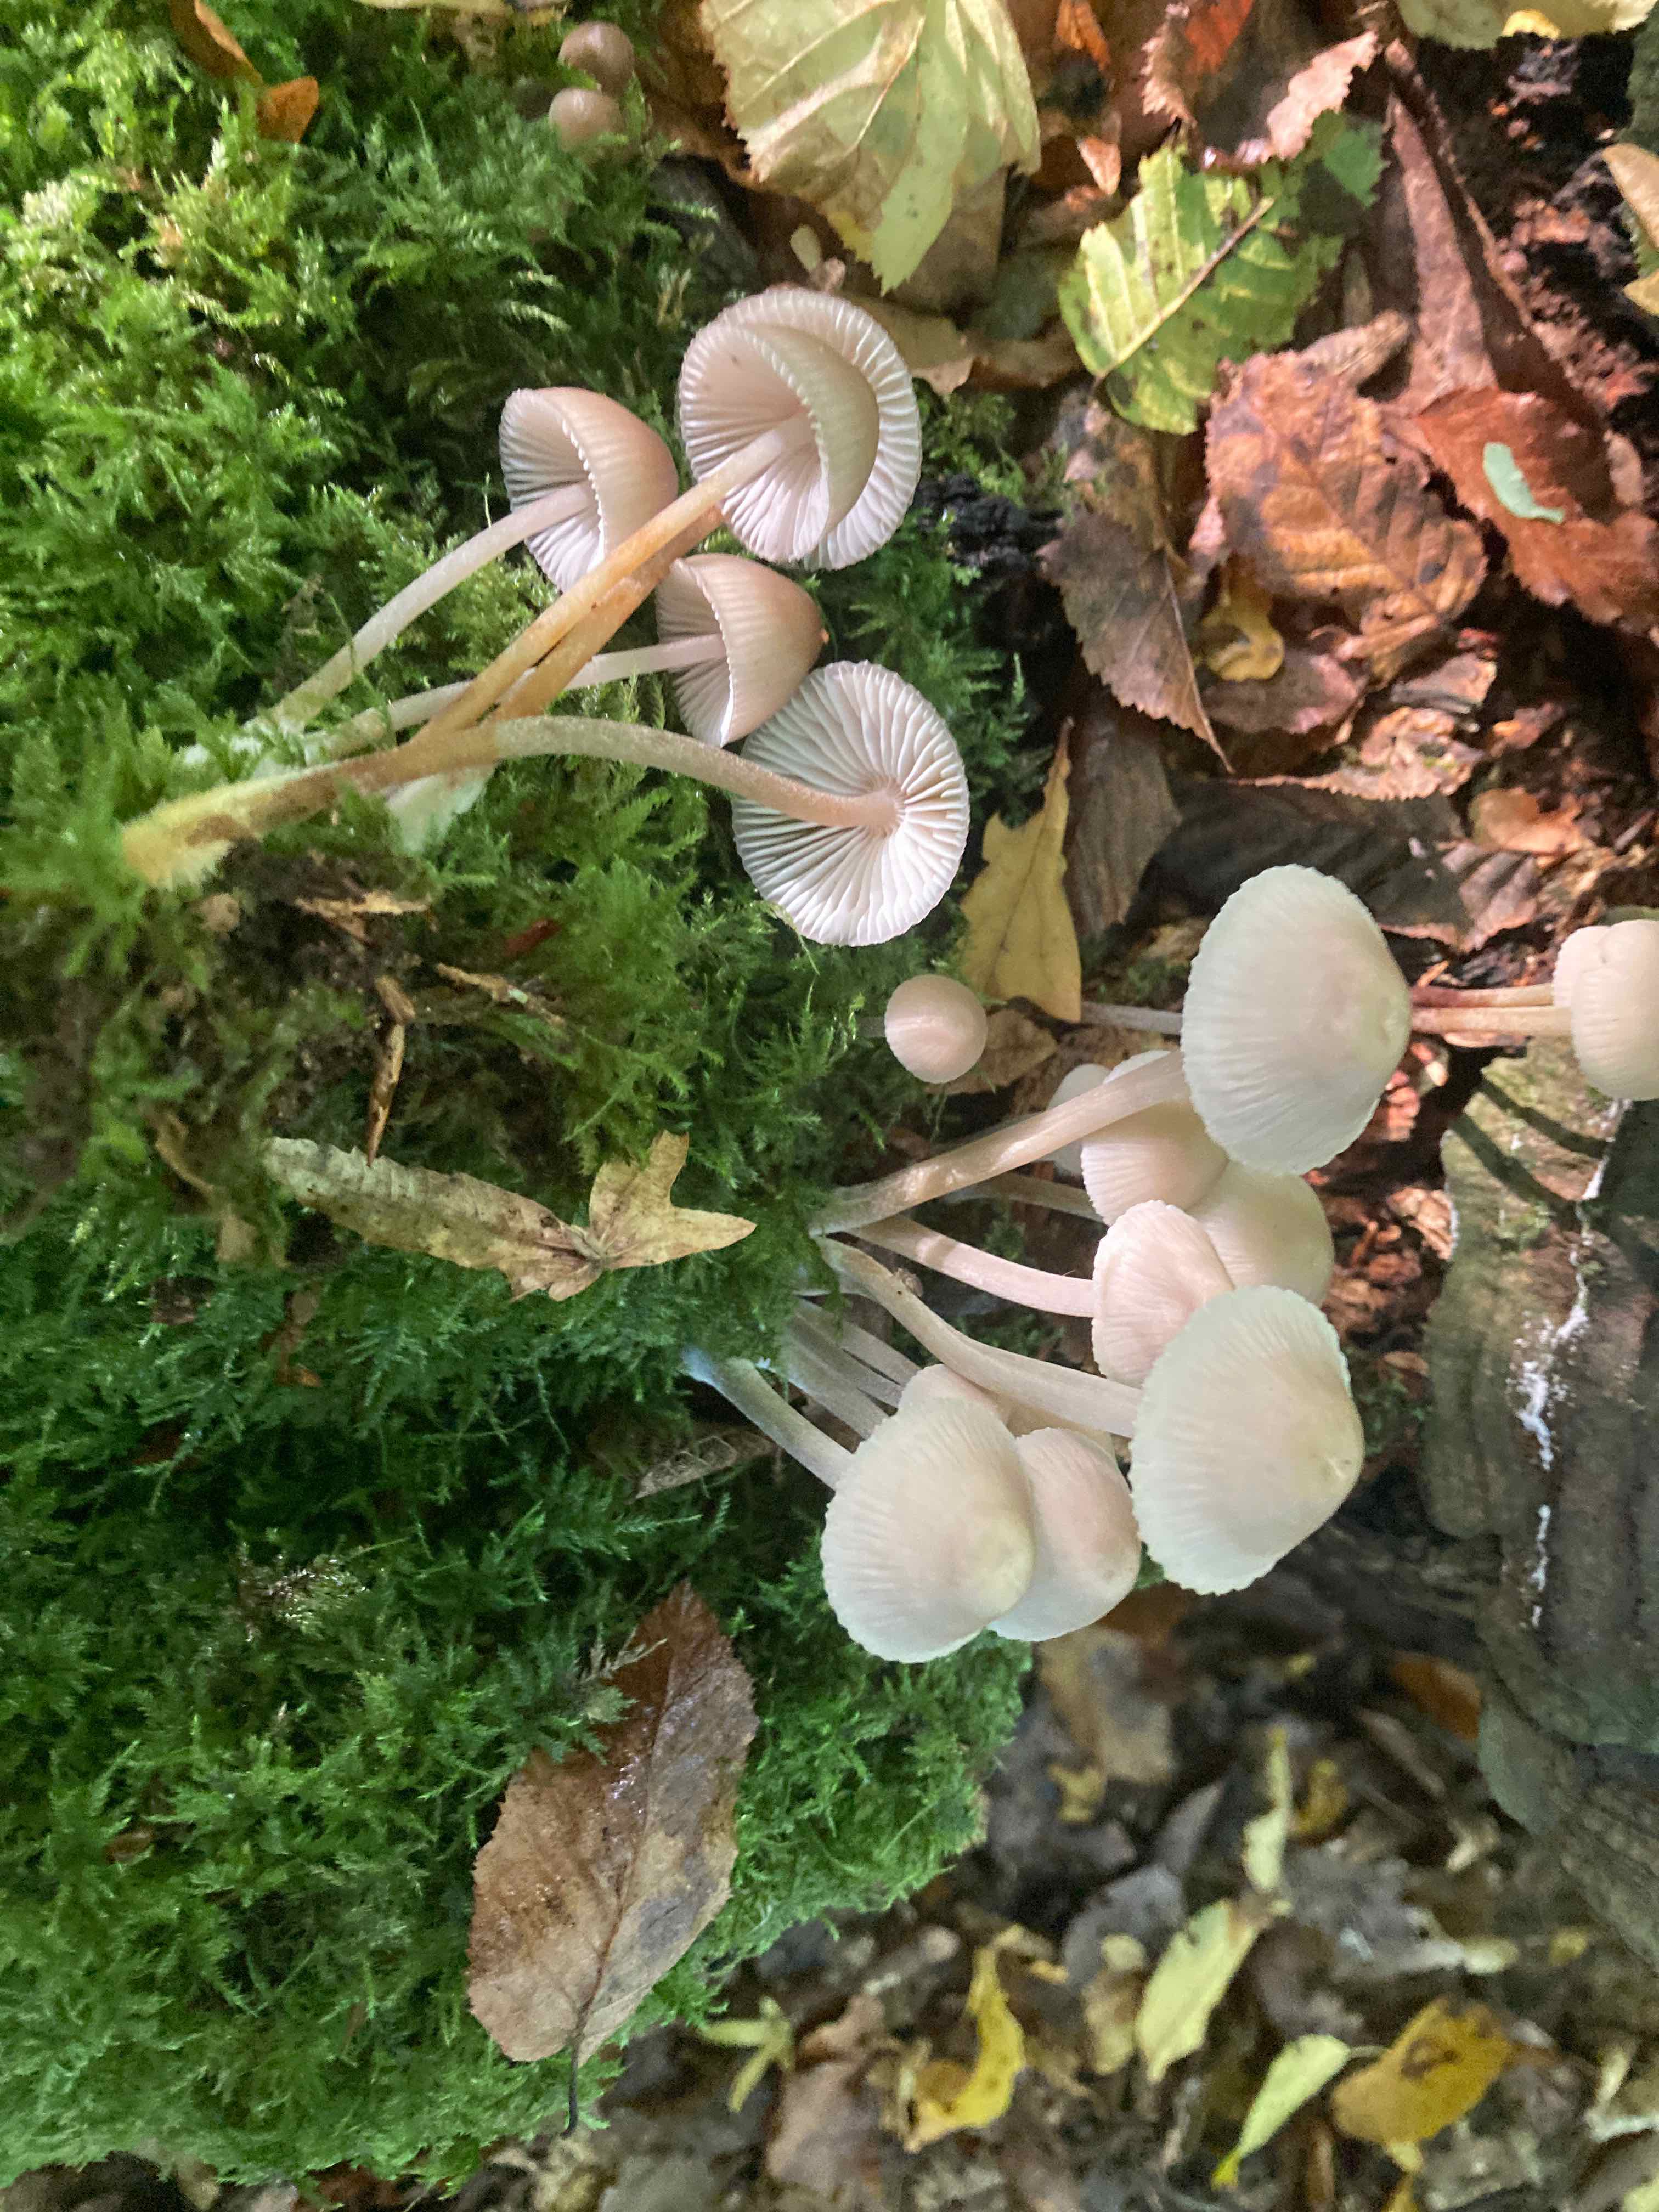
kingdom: Fungi
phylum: Basidiomycota
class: Agaricomycetes
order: Agaricales
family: Mycenaceae
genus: Mycena
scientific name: Mycena inclinata
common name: nikkende huesvamp
